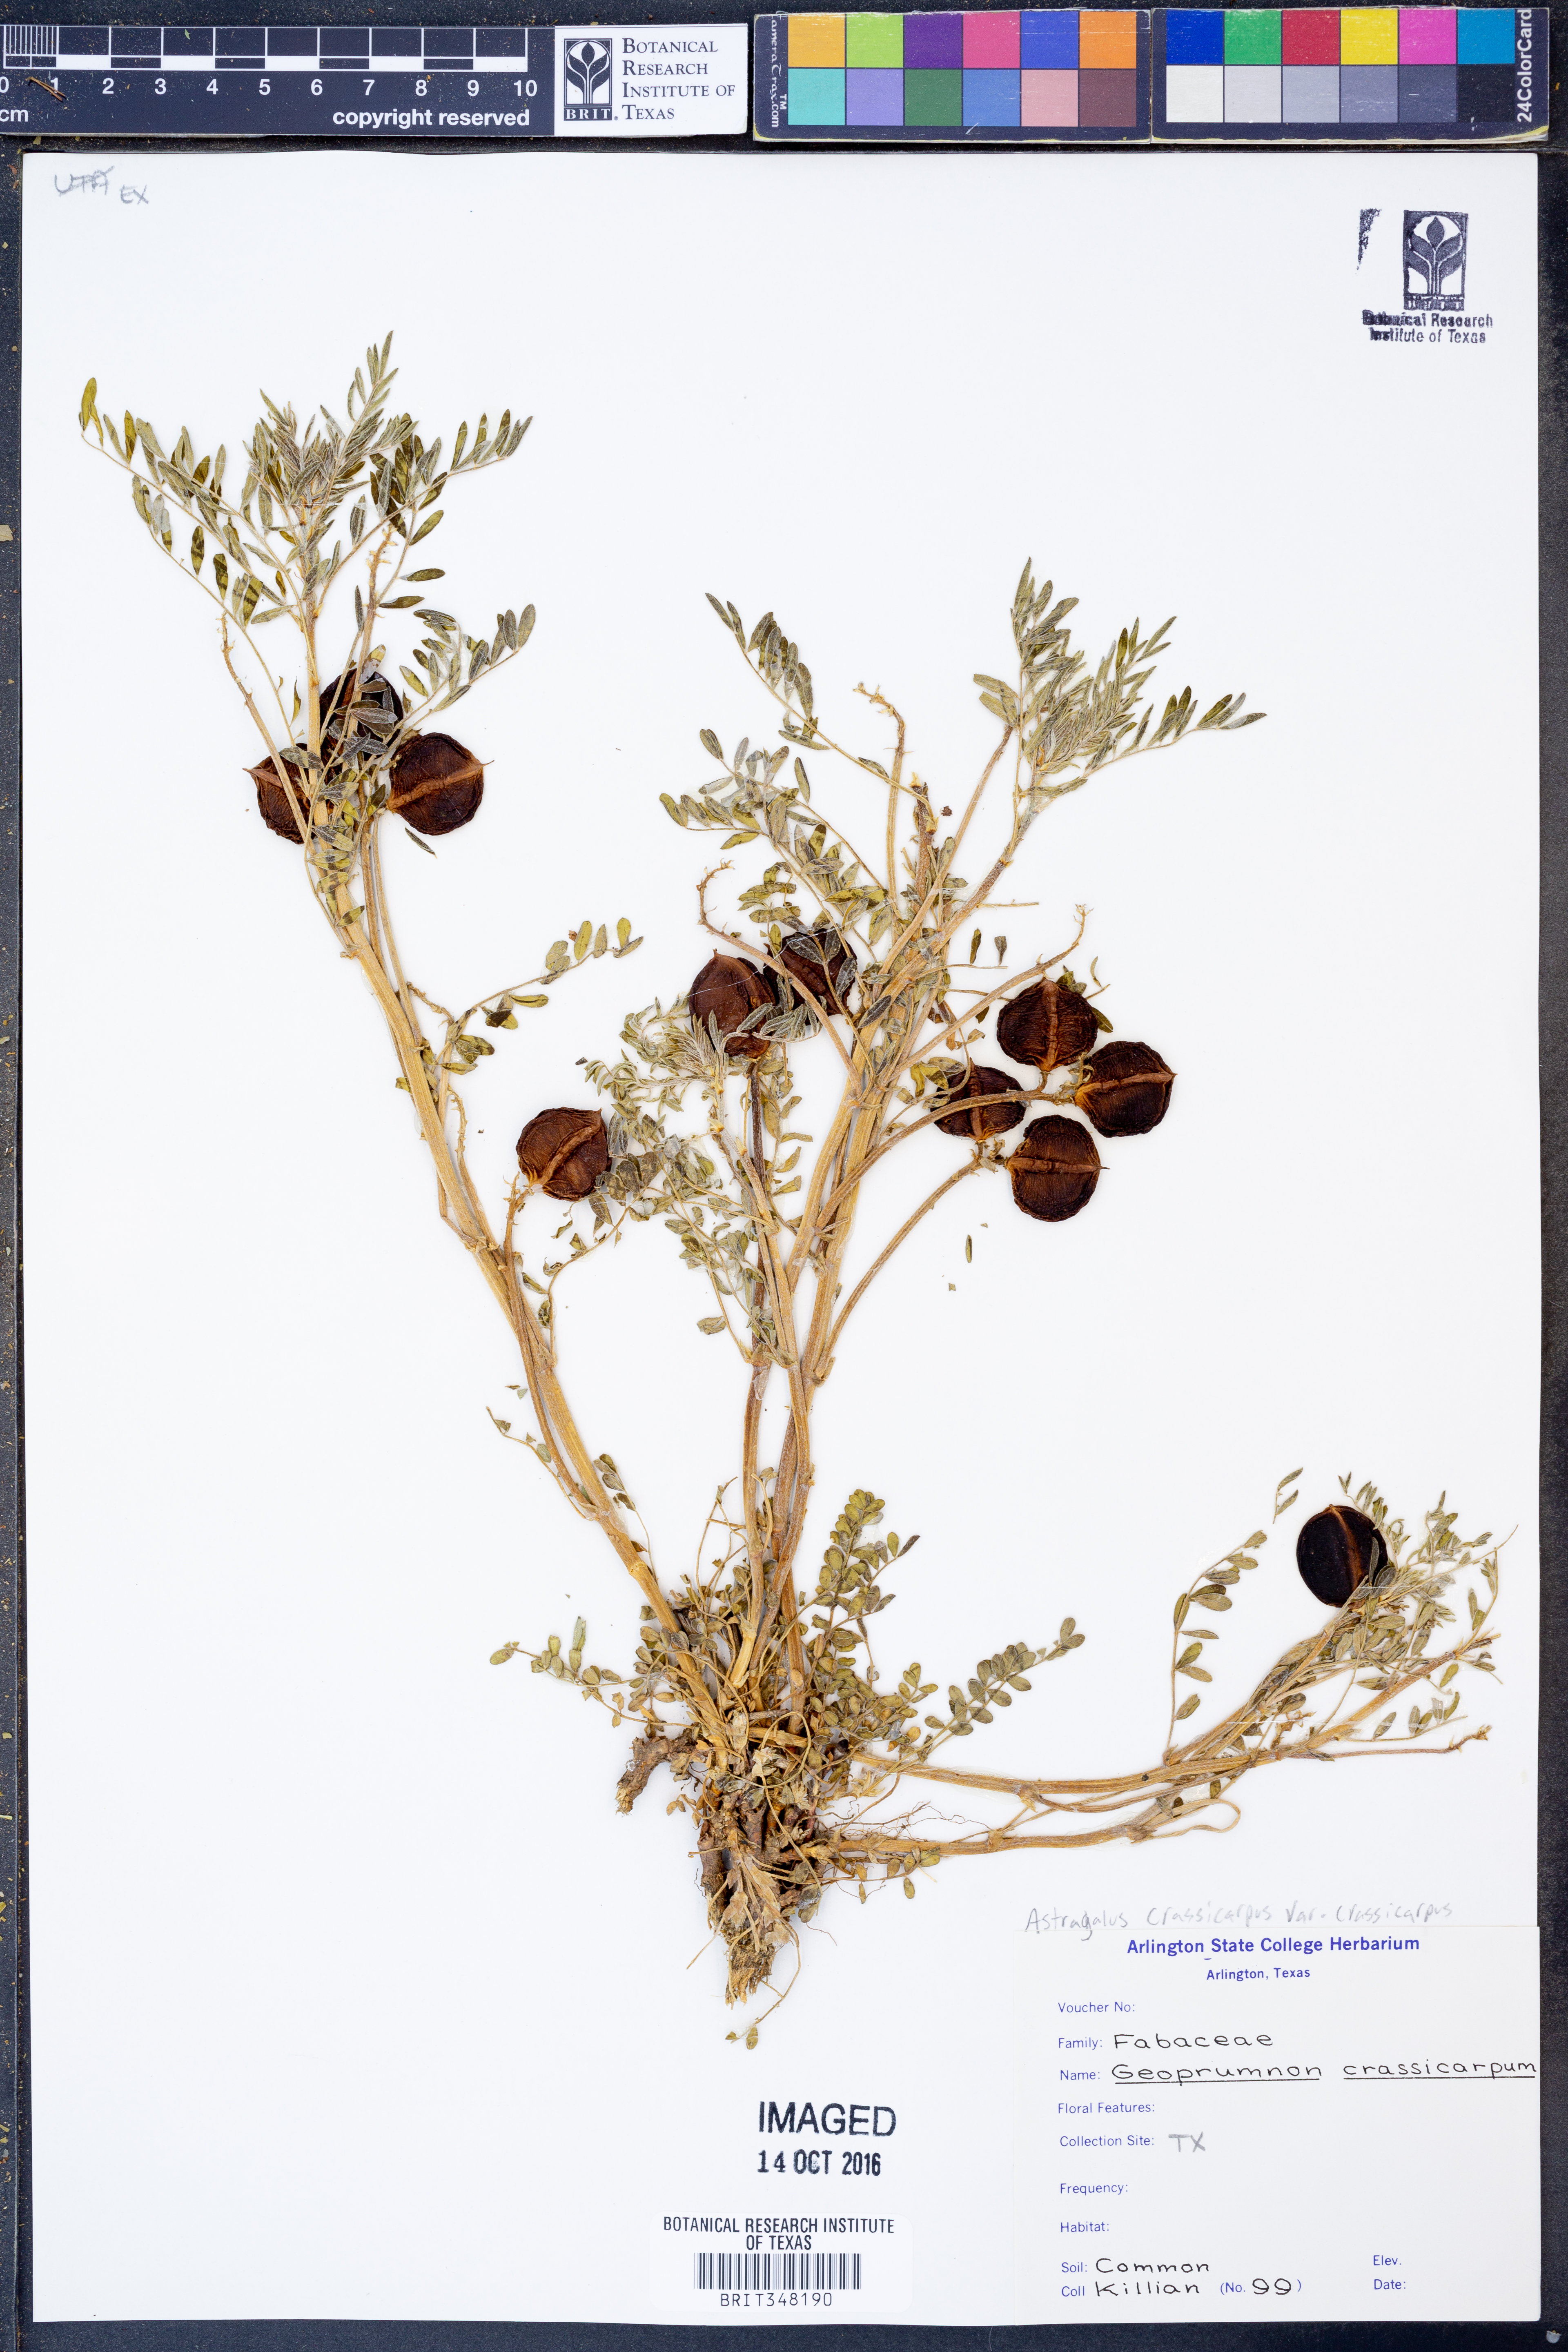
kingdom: Plantae
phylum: Tracheophyta
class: Magnoliopsida
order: Fabales
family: Fabaceae
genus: Astragalus
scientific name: Astragalus crassicarpus
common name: Ground-plum milk-vetch
